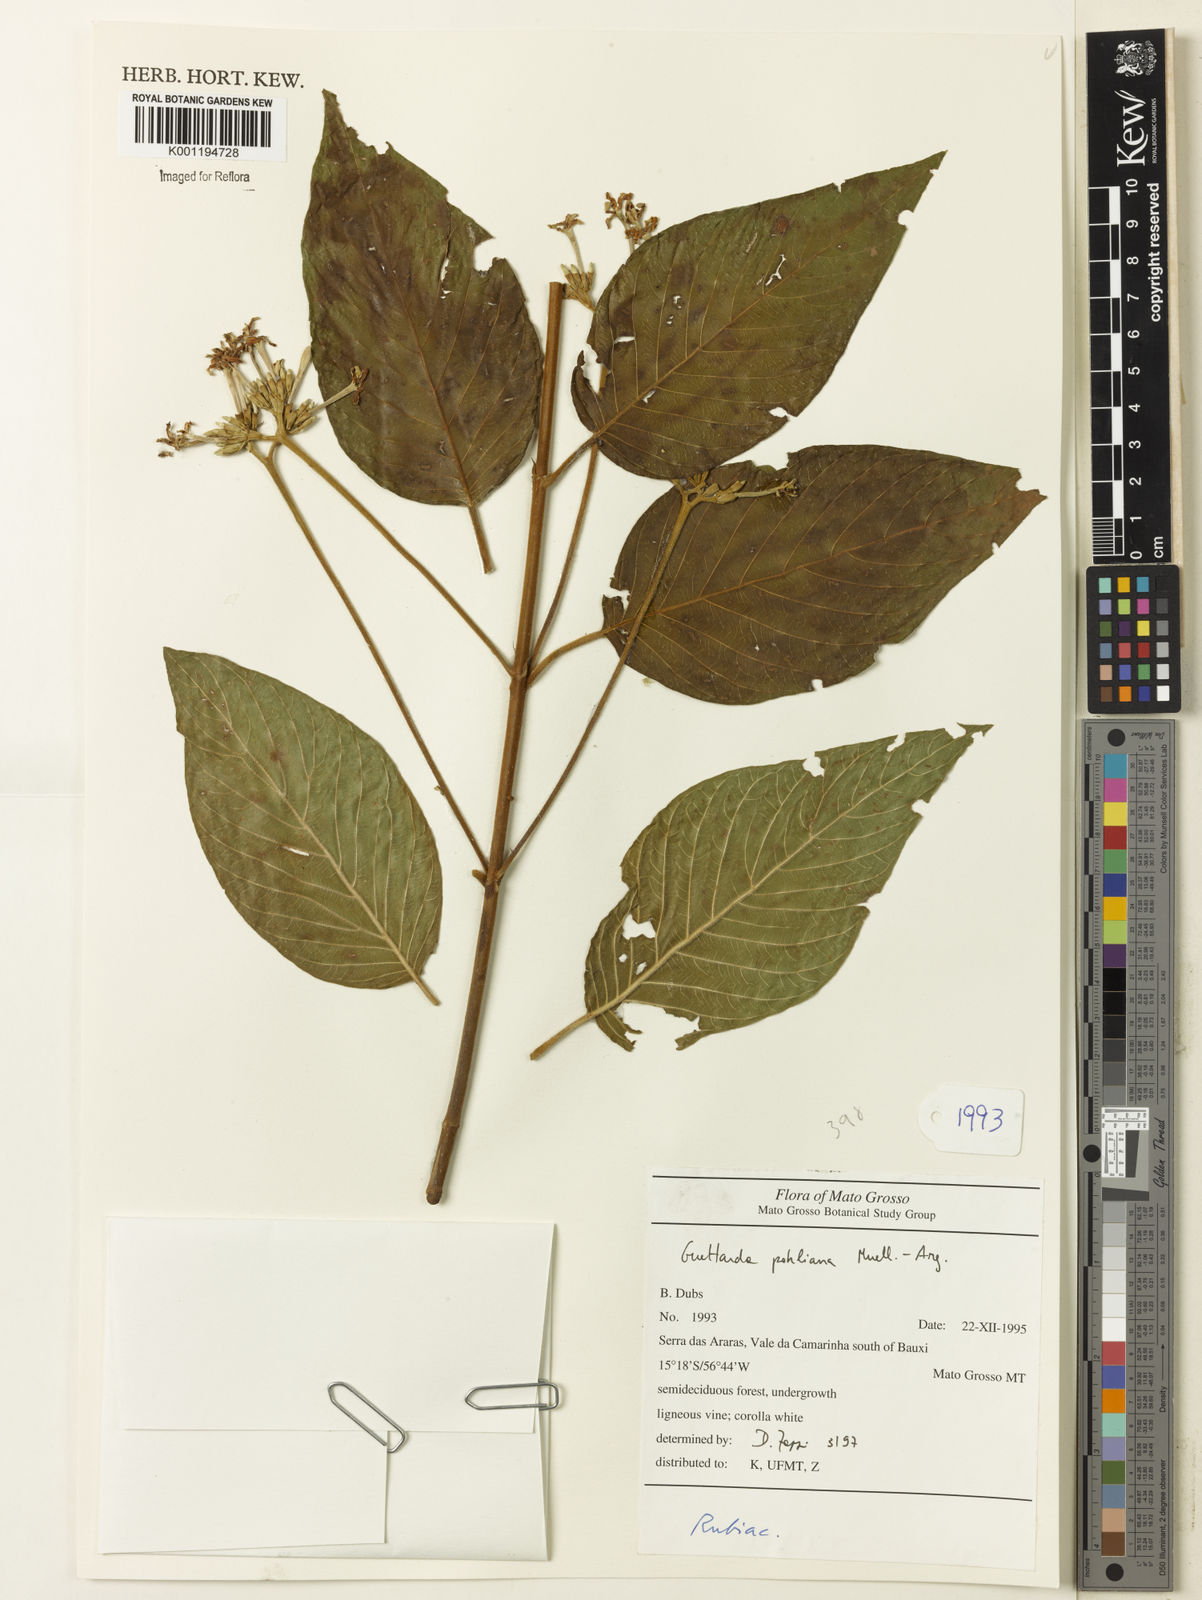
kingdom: Plantae
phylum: Tracheophyta
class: Magnoliopsida
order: Gentianales
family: Rubiaceae
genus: Guettarda
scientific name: Guettarda mattogrossensis
